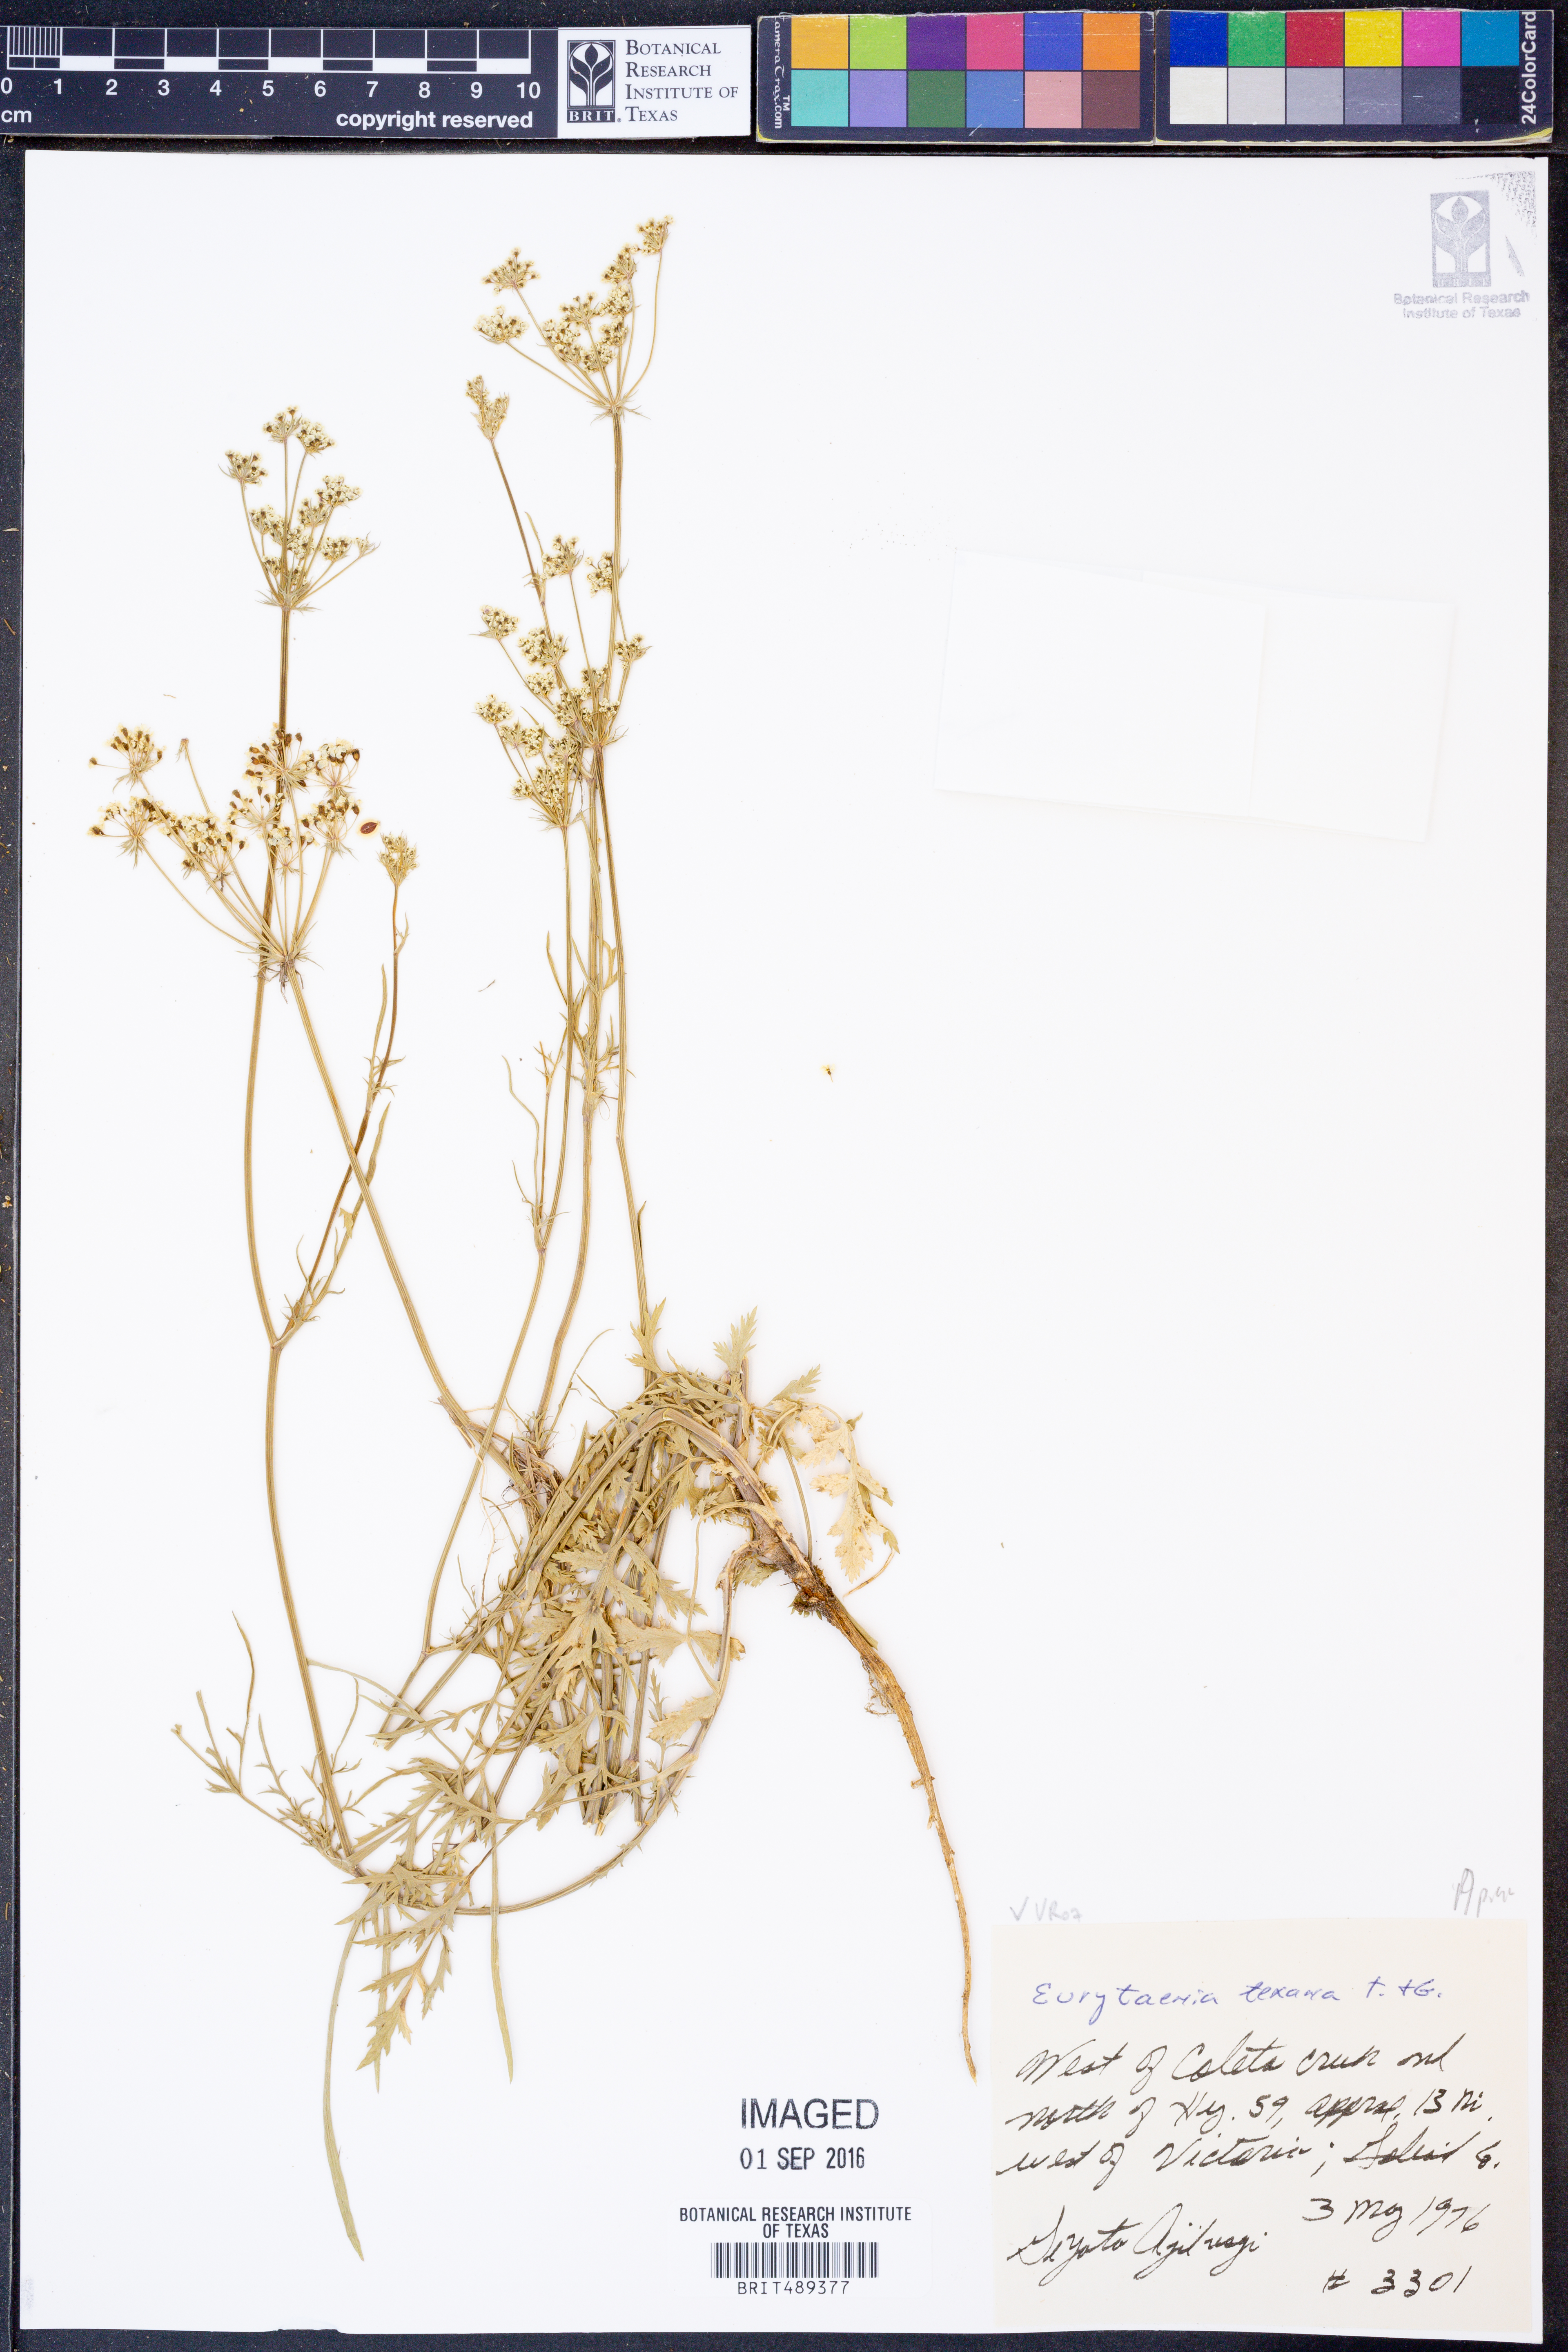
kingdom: Plantae
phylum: Tracheophyta
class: Magnoliopsida
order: Apiales
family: Apiaceae
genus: Eurytaenia
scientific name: Eurytaenia texana
